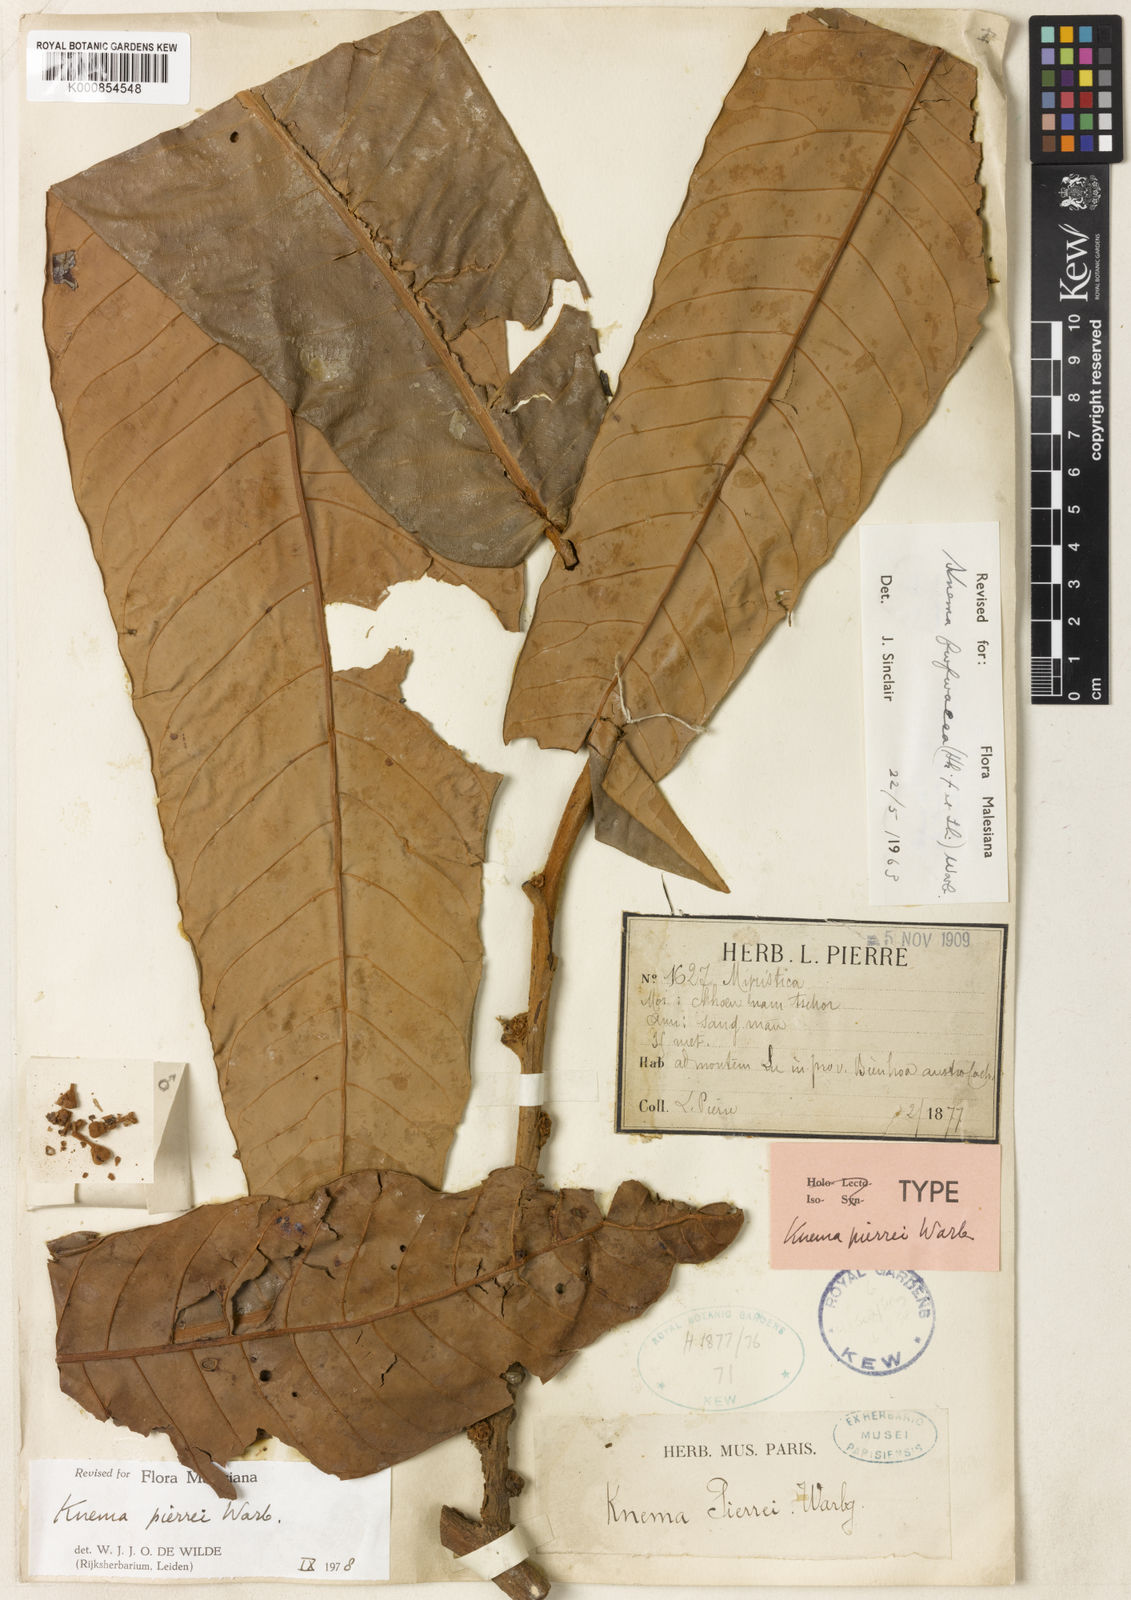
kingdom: Plantae
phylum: Tracheophyta
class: Magnoliopsida
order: Magnoliales
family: Myristicaceae
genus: Knema
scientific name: Knema furfuracea
